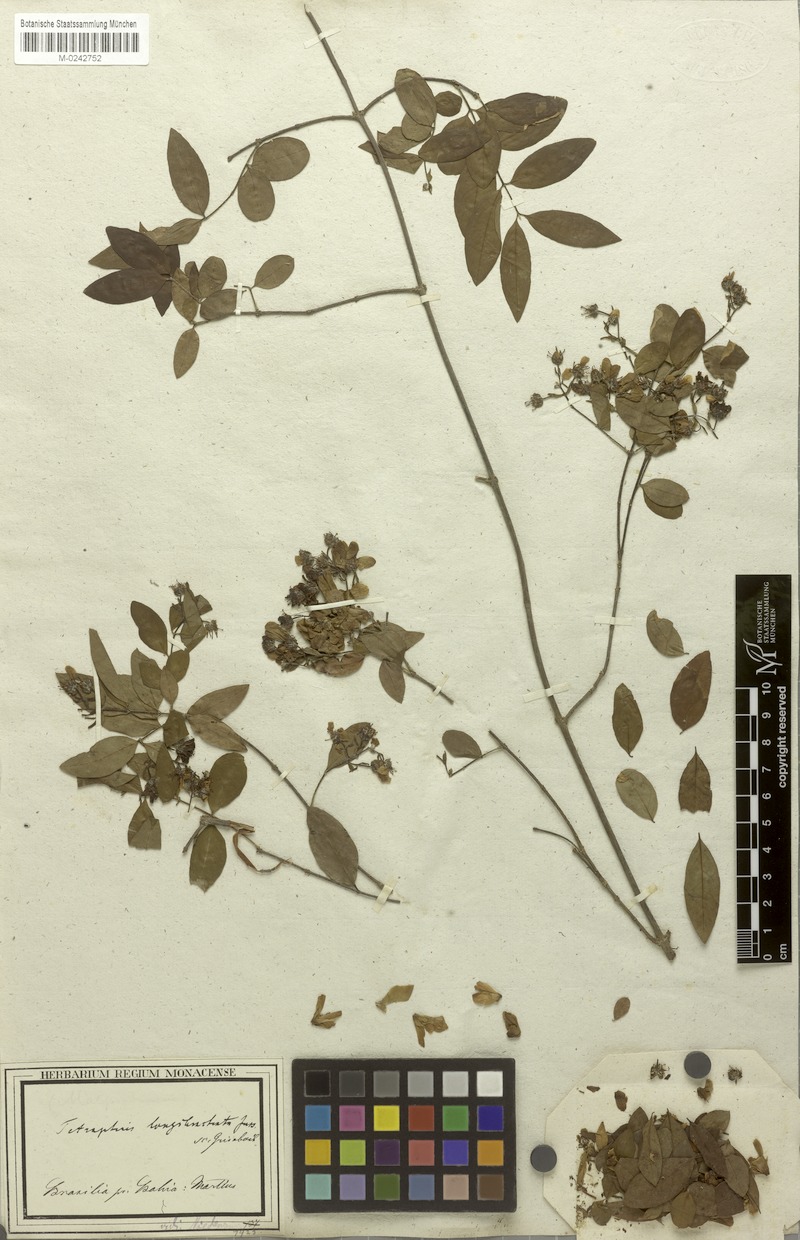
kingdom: Plantae
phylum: Tracheophyta
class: Magnoliopsida
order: Malpighiales
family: Malpighiaceae
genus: Glicophyllum
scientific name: Glicophyllum longibracteatum
